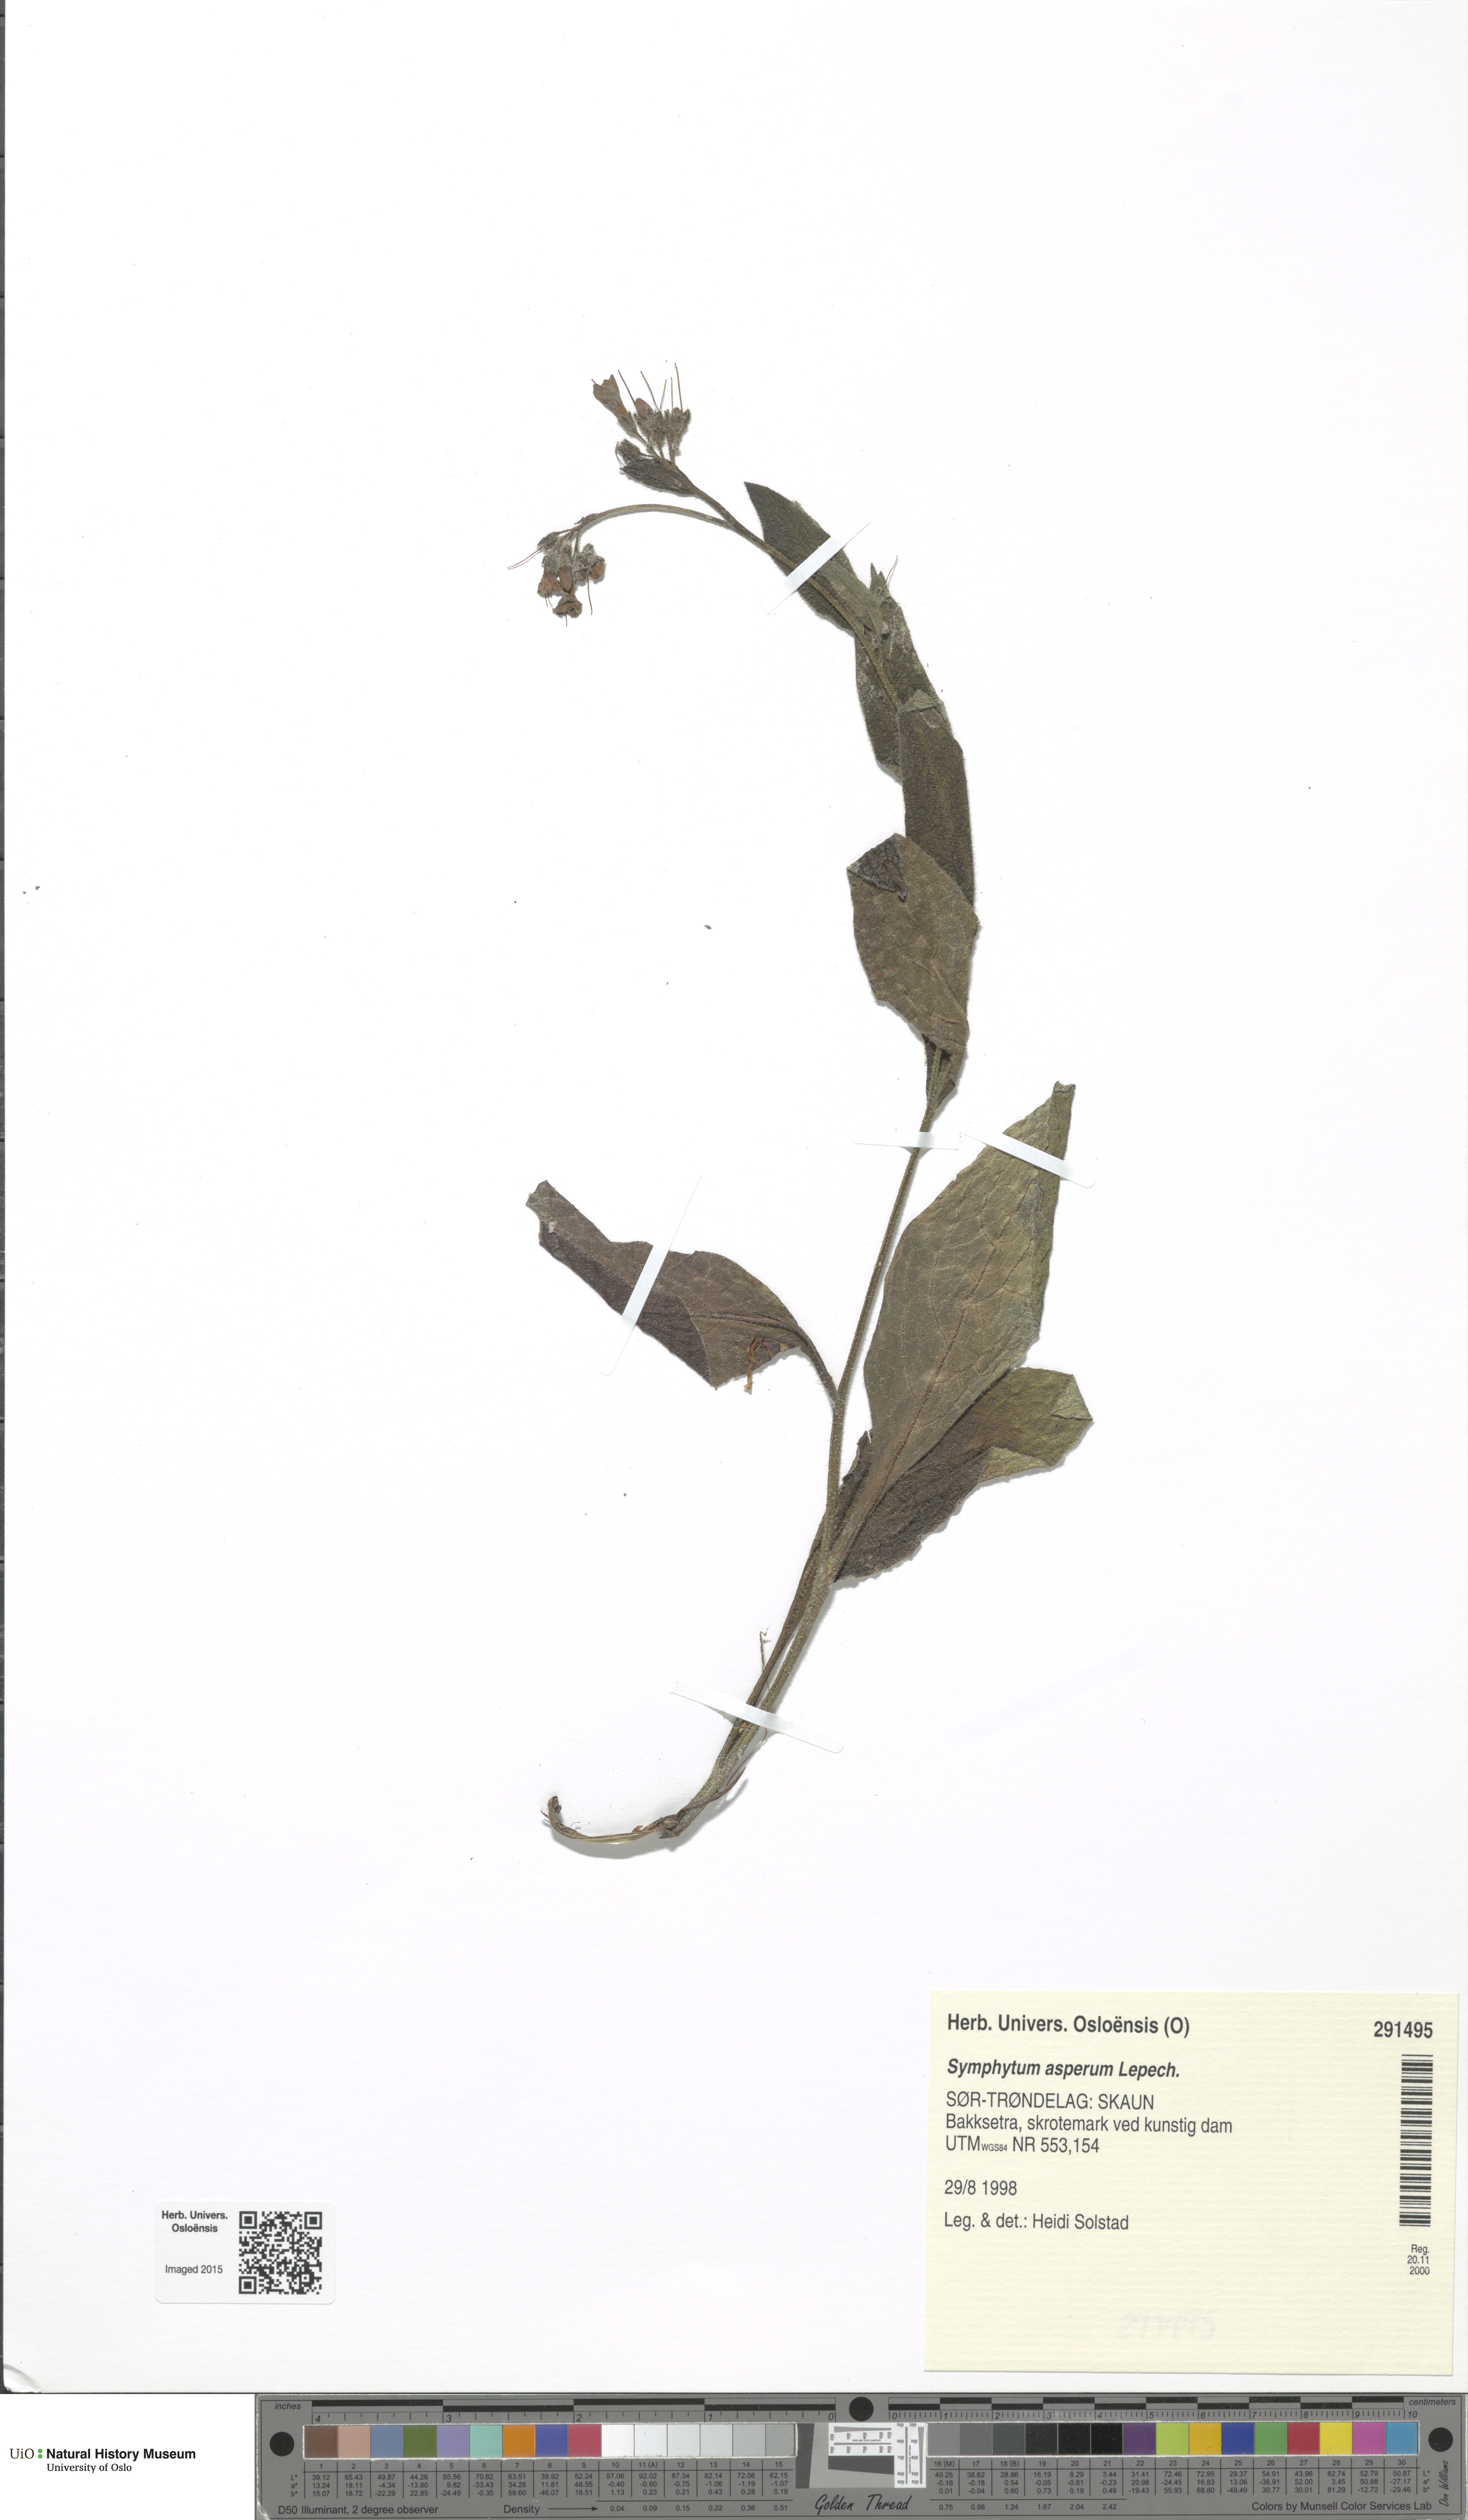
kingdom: Plantae
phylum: Tracheophyta
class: Magnoliopsida
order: Boraginales
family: Boraginaceae
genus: Symphytum
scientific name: Symphytum asperum
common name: Prickly comfrey
